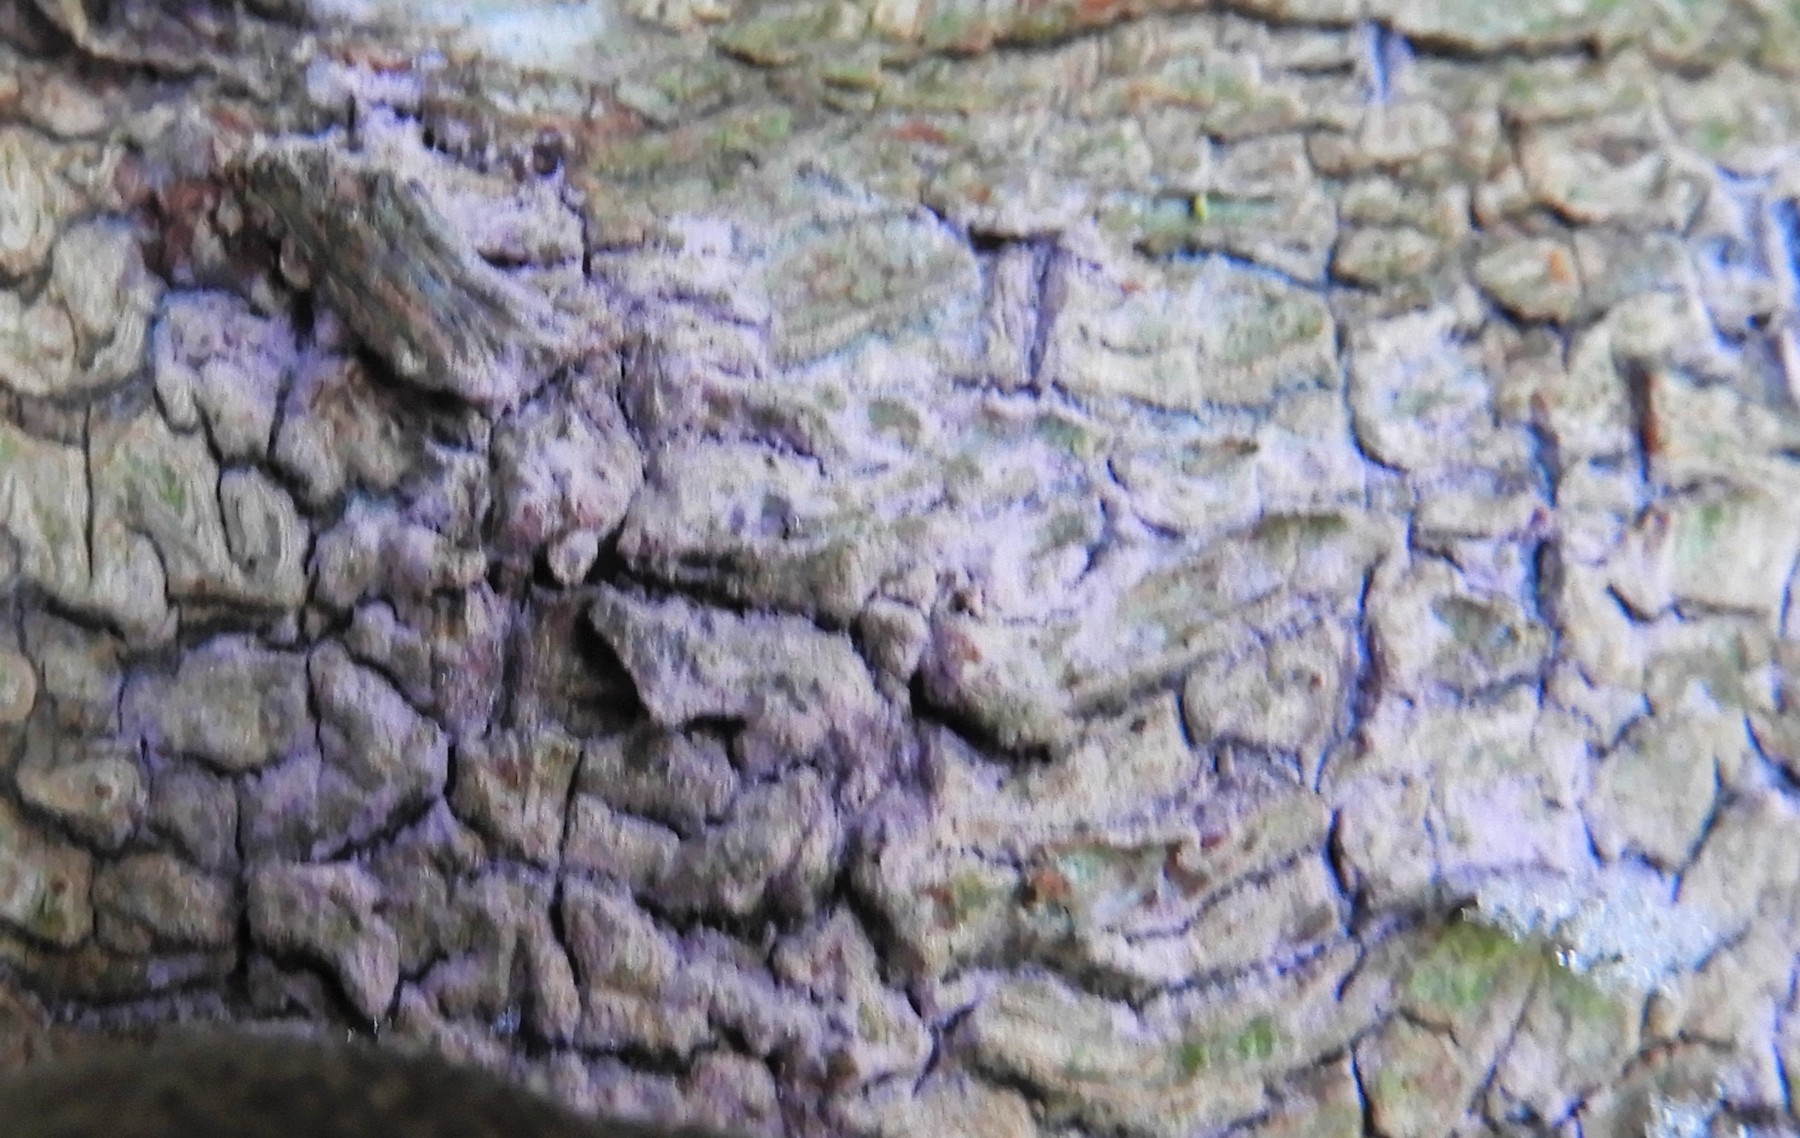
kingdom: Fungi
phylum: Basidiomycota
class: Agaricomycetes
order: Cantharellales
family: Tulasnellaceae
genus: Tulasnella
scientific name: Tulasnella violea
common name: violet ballonhinde
